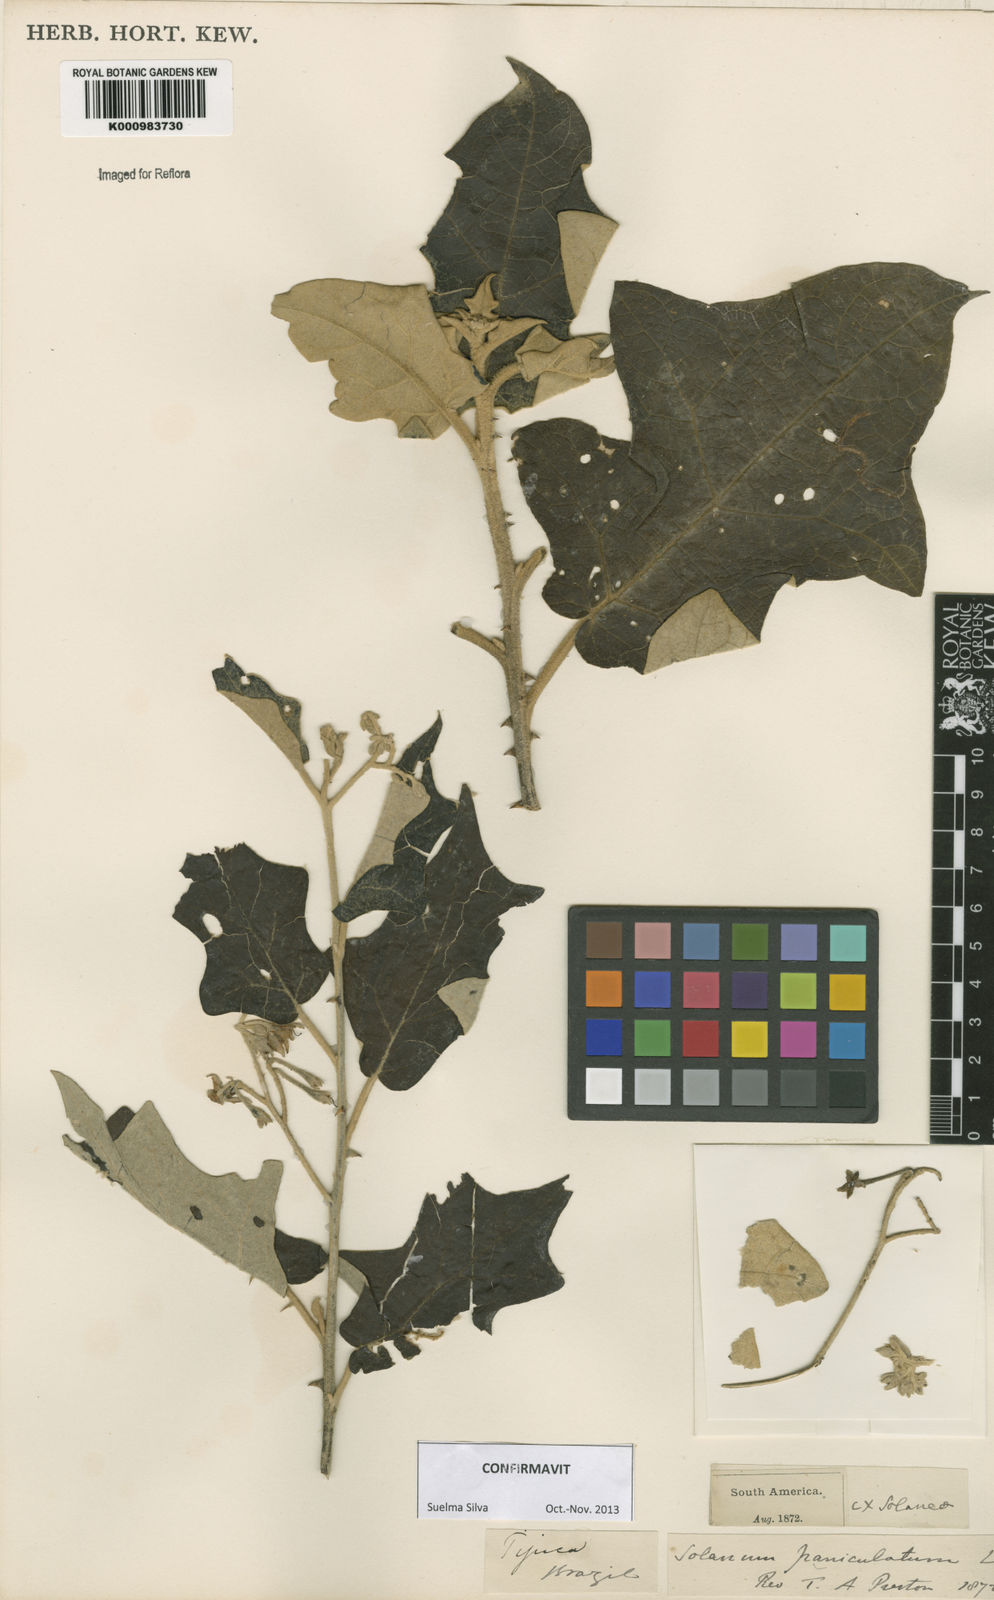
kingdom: Plantae
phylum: Tracheophyta
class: Magnoliopsida
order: Solanales
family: Solanaceae
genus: Solanum
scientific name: Solanum paniculatum
